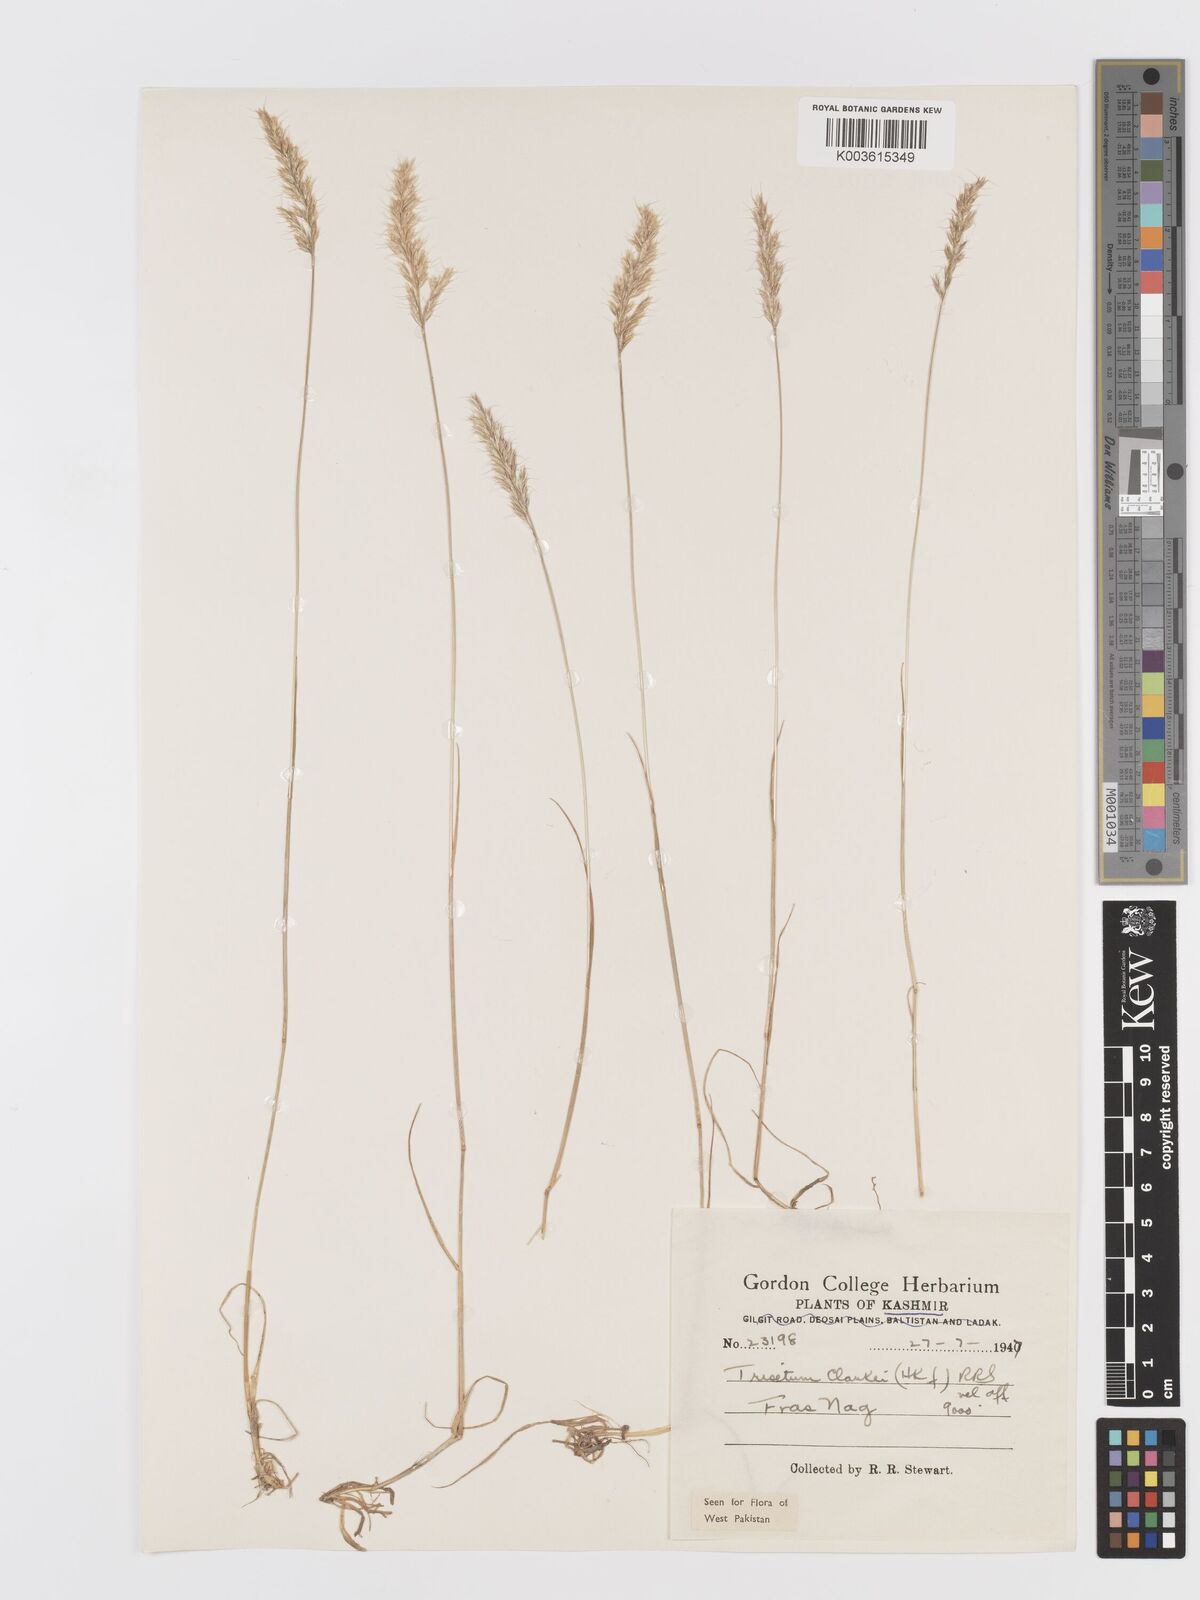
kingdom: Plantae
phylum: Tracheophyta
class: Liliopsida
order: Poales
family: Poaceae
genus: Trisetum
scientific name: Trisetum clarkei
